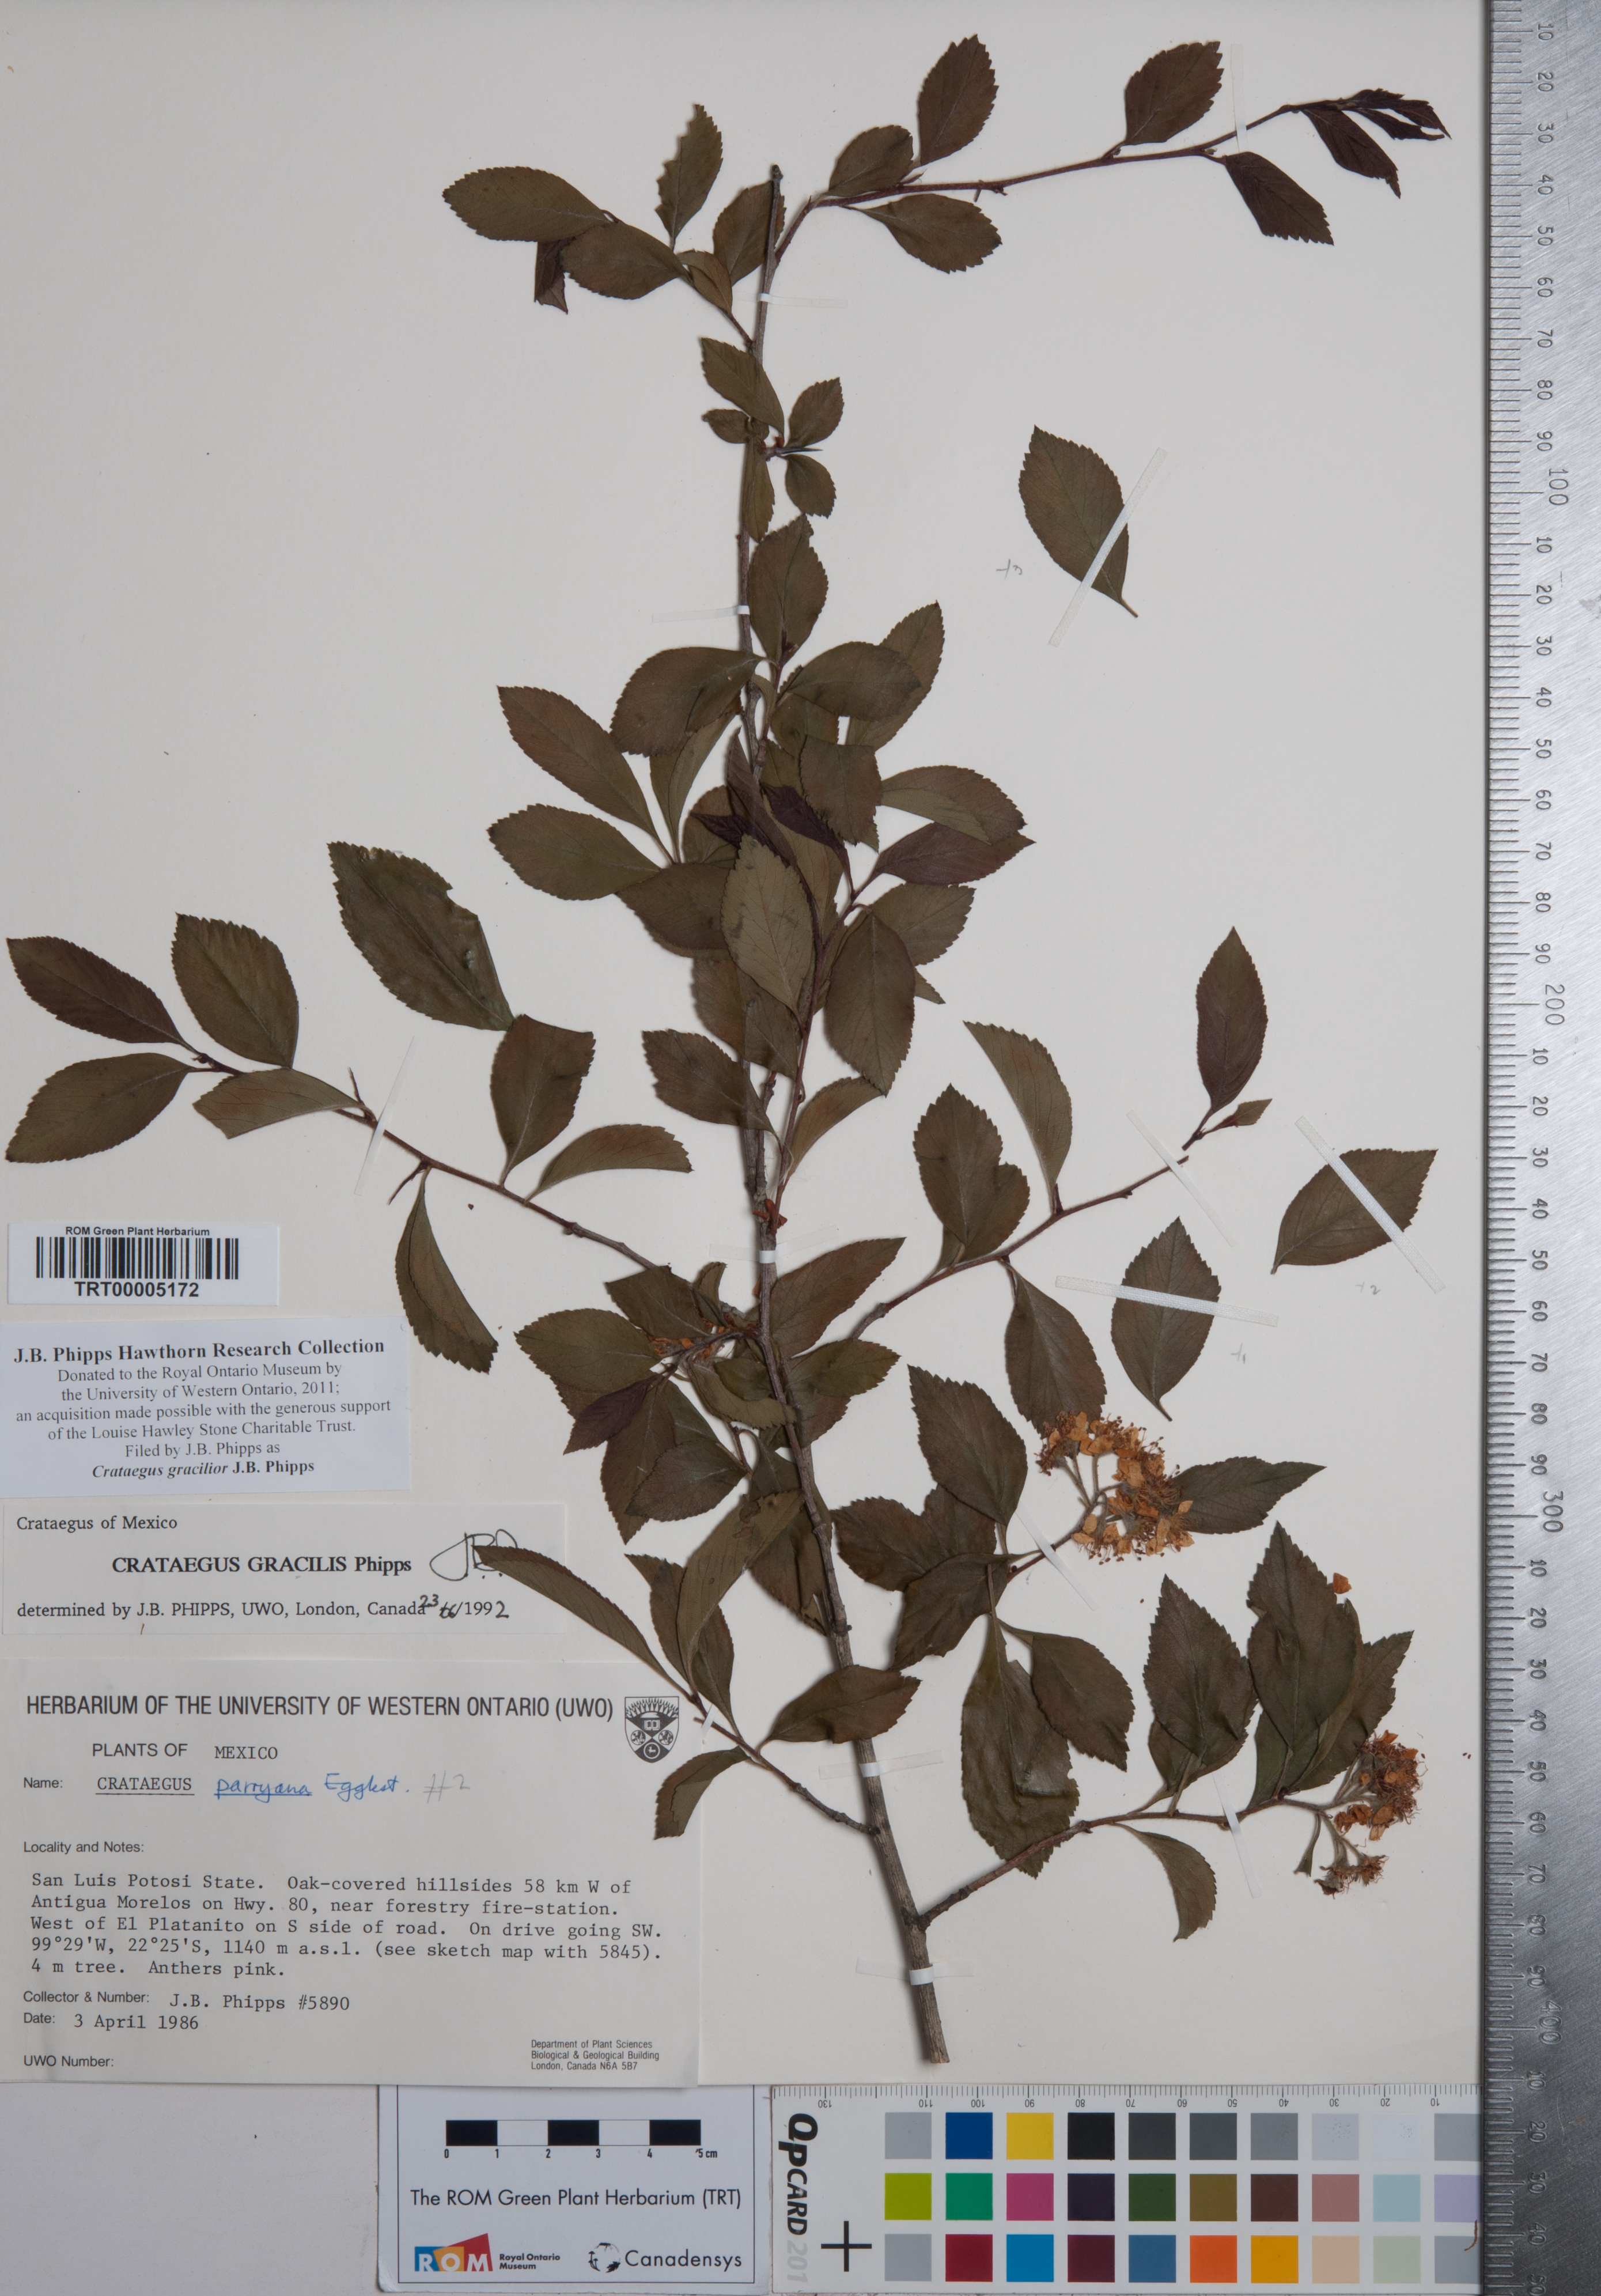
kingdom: Plantae
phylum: Tracheophyta
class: Magnoliopsida
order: Rosales
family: Rosaceae
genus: Crataegus
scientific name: Crataegus gracilior
